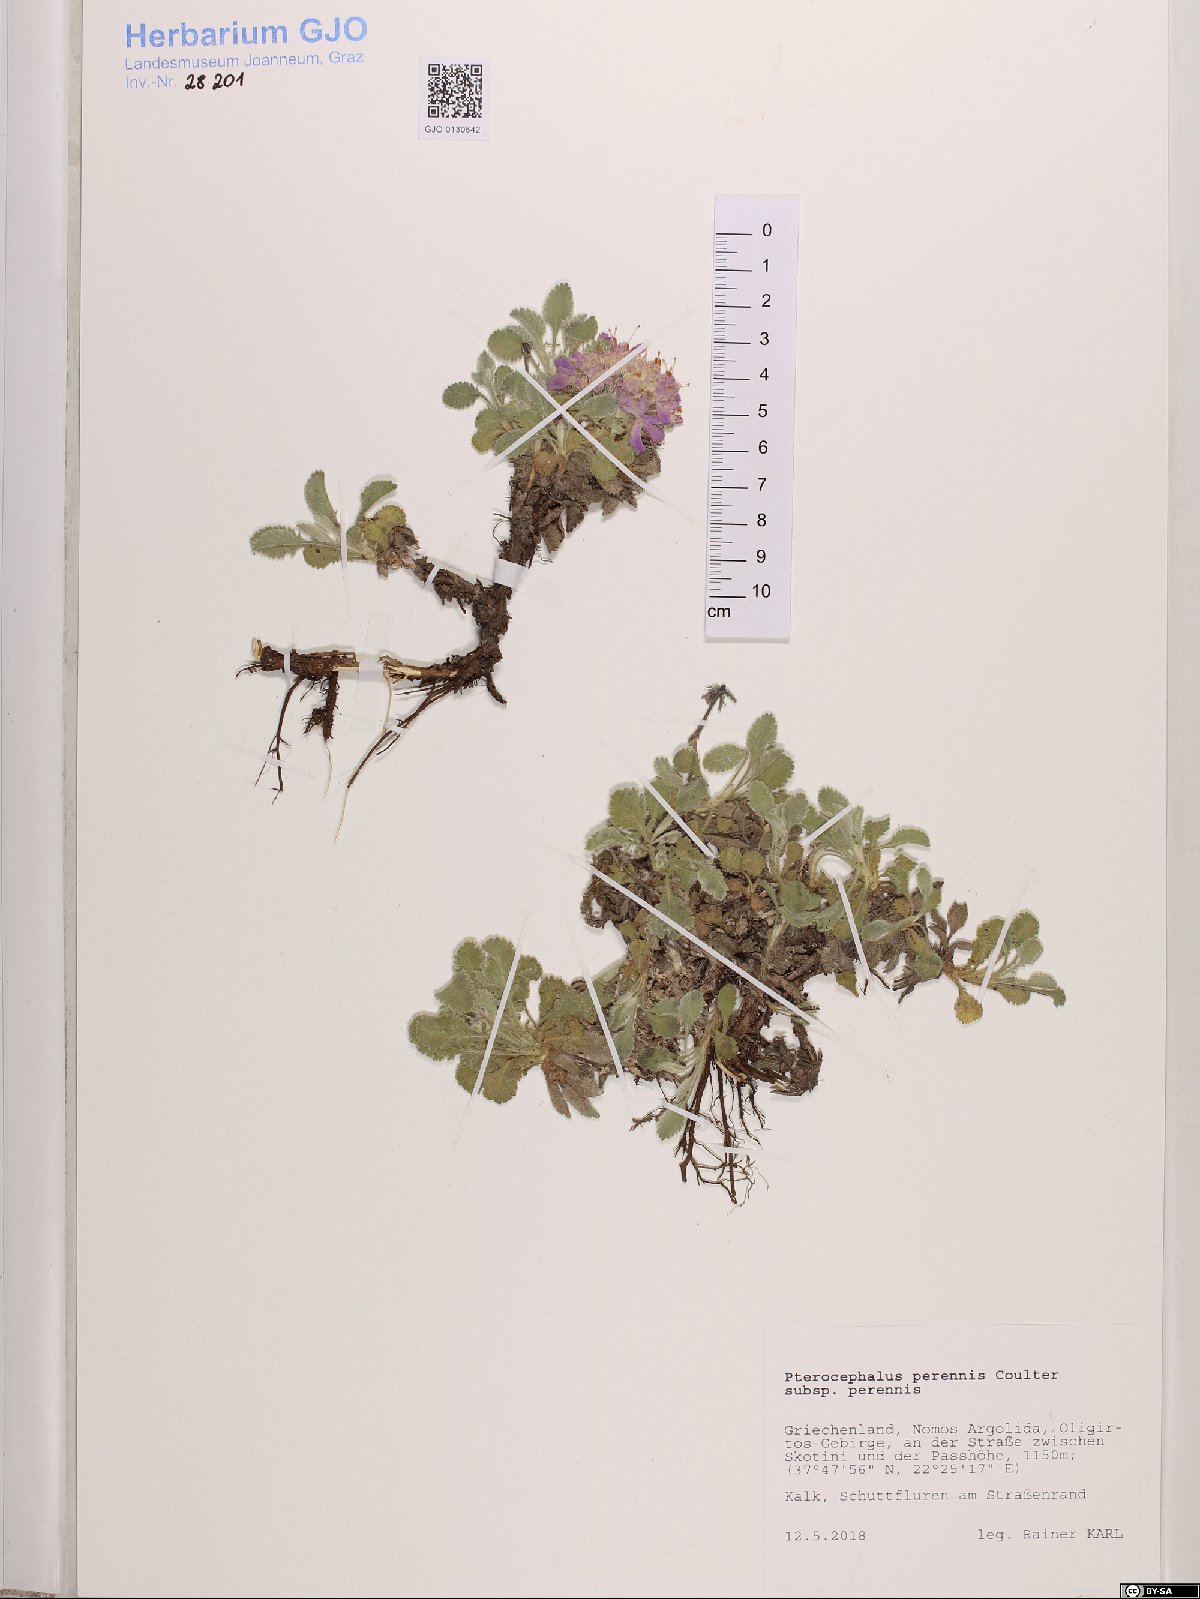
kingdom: Plantae
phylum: Tracheophyta
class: Magnoliopsida
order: Dipsacales
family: Caprifoliaceae
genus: Pterocephalus
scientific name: Pterocephalus perennis
